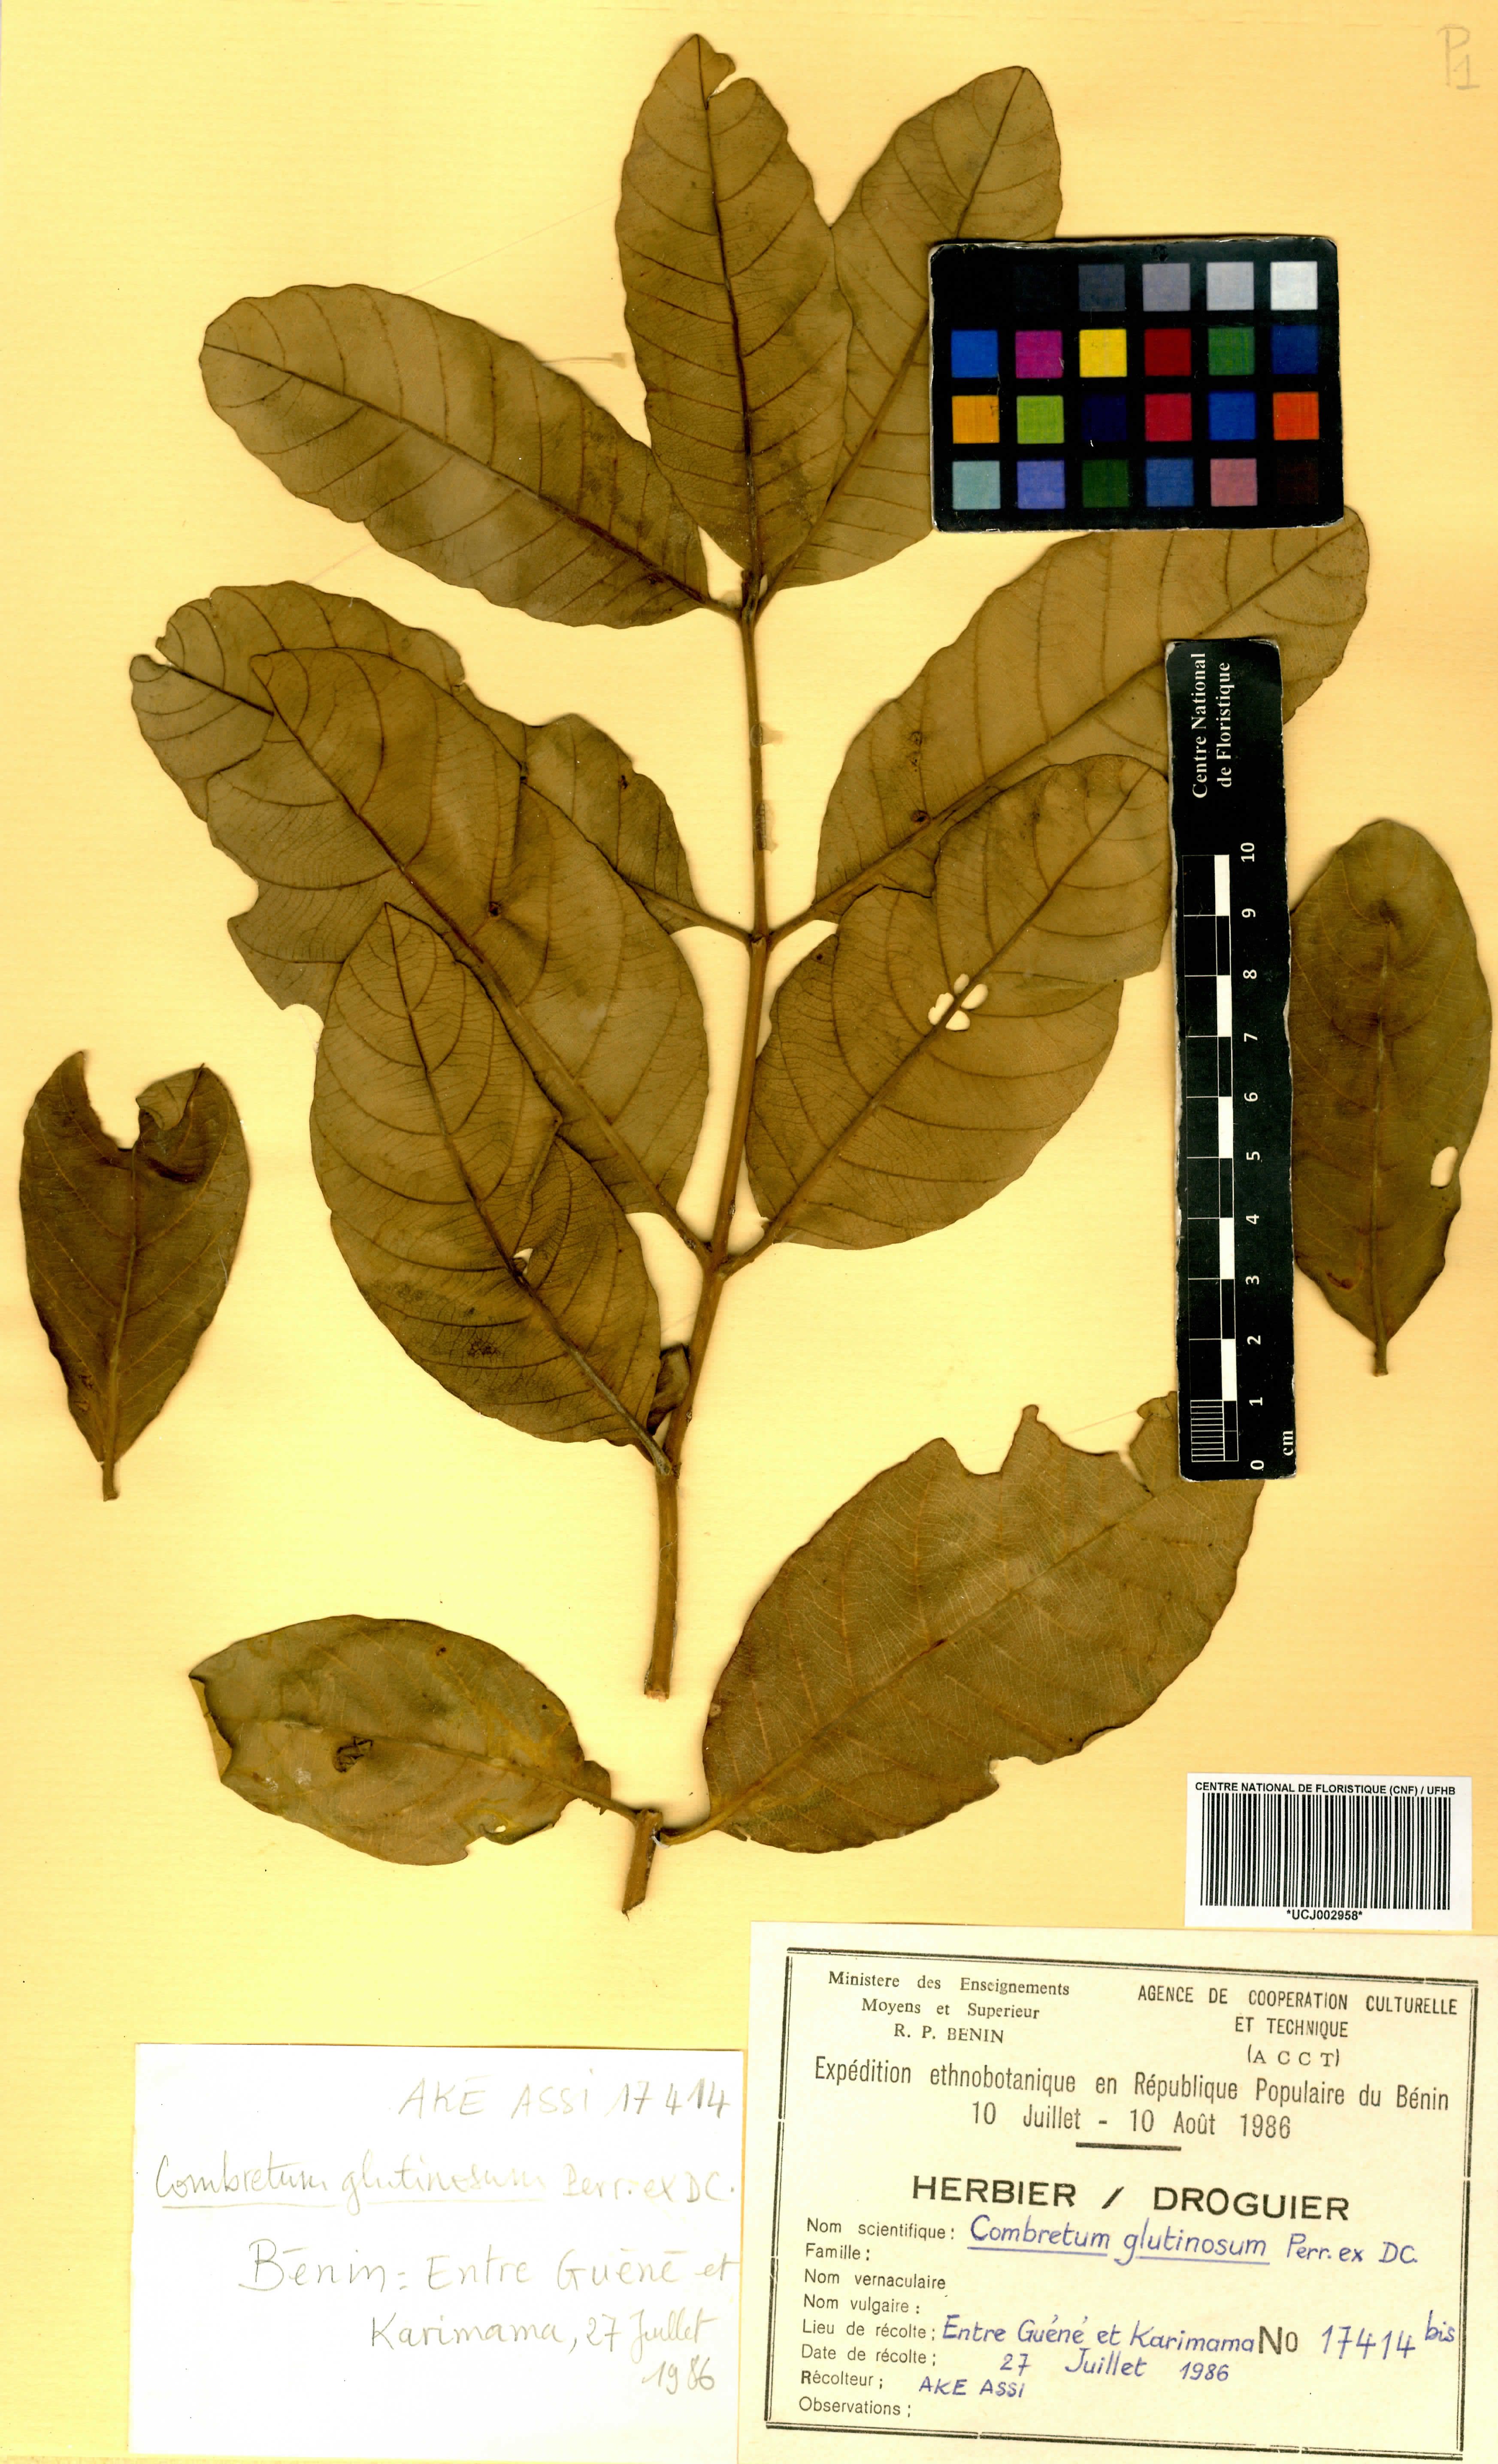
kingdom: Plantae
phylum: Tracheophyta
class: Magnoliopsida
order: Myrtales
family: Combretaceae
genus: Combretum
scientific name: Combretum glutinosum
